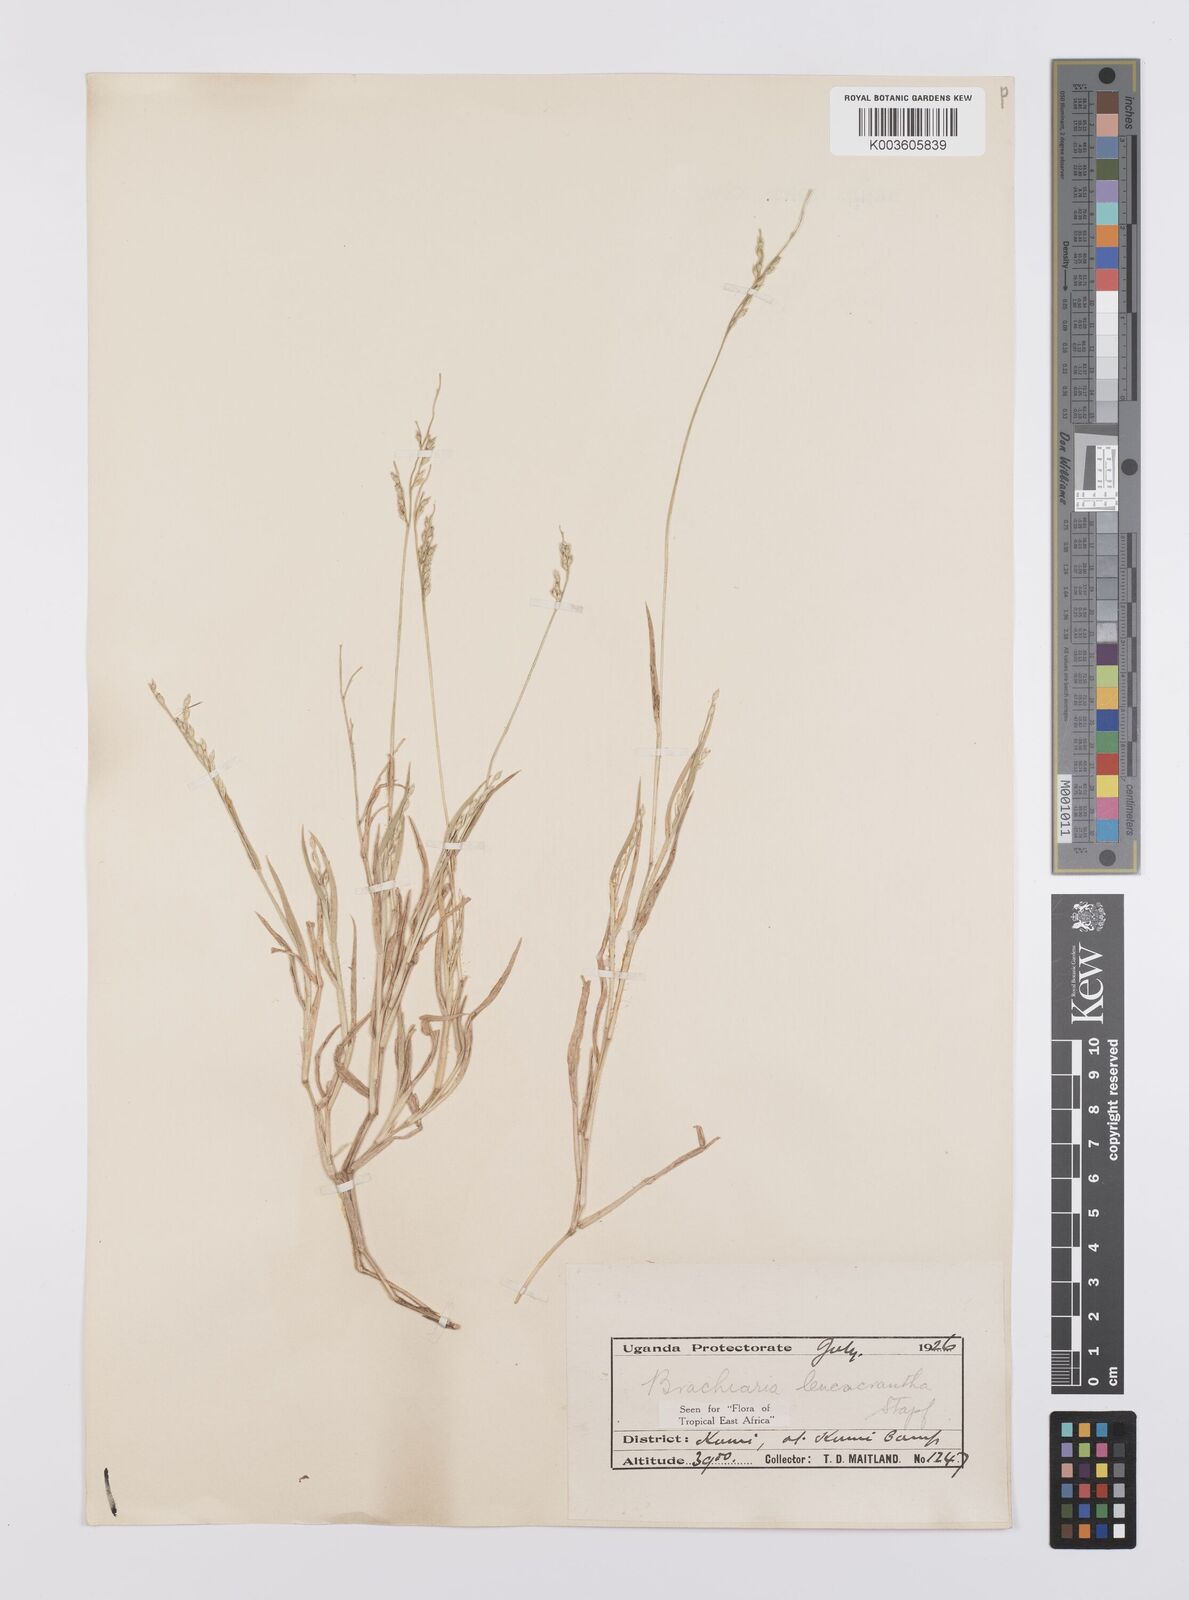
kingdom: Plantae
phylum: Tracheophyta
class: Liliopsida
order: Poales
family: Poaceae
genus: Urochloa
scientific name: Urochloa xantholeuca
